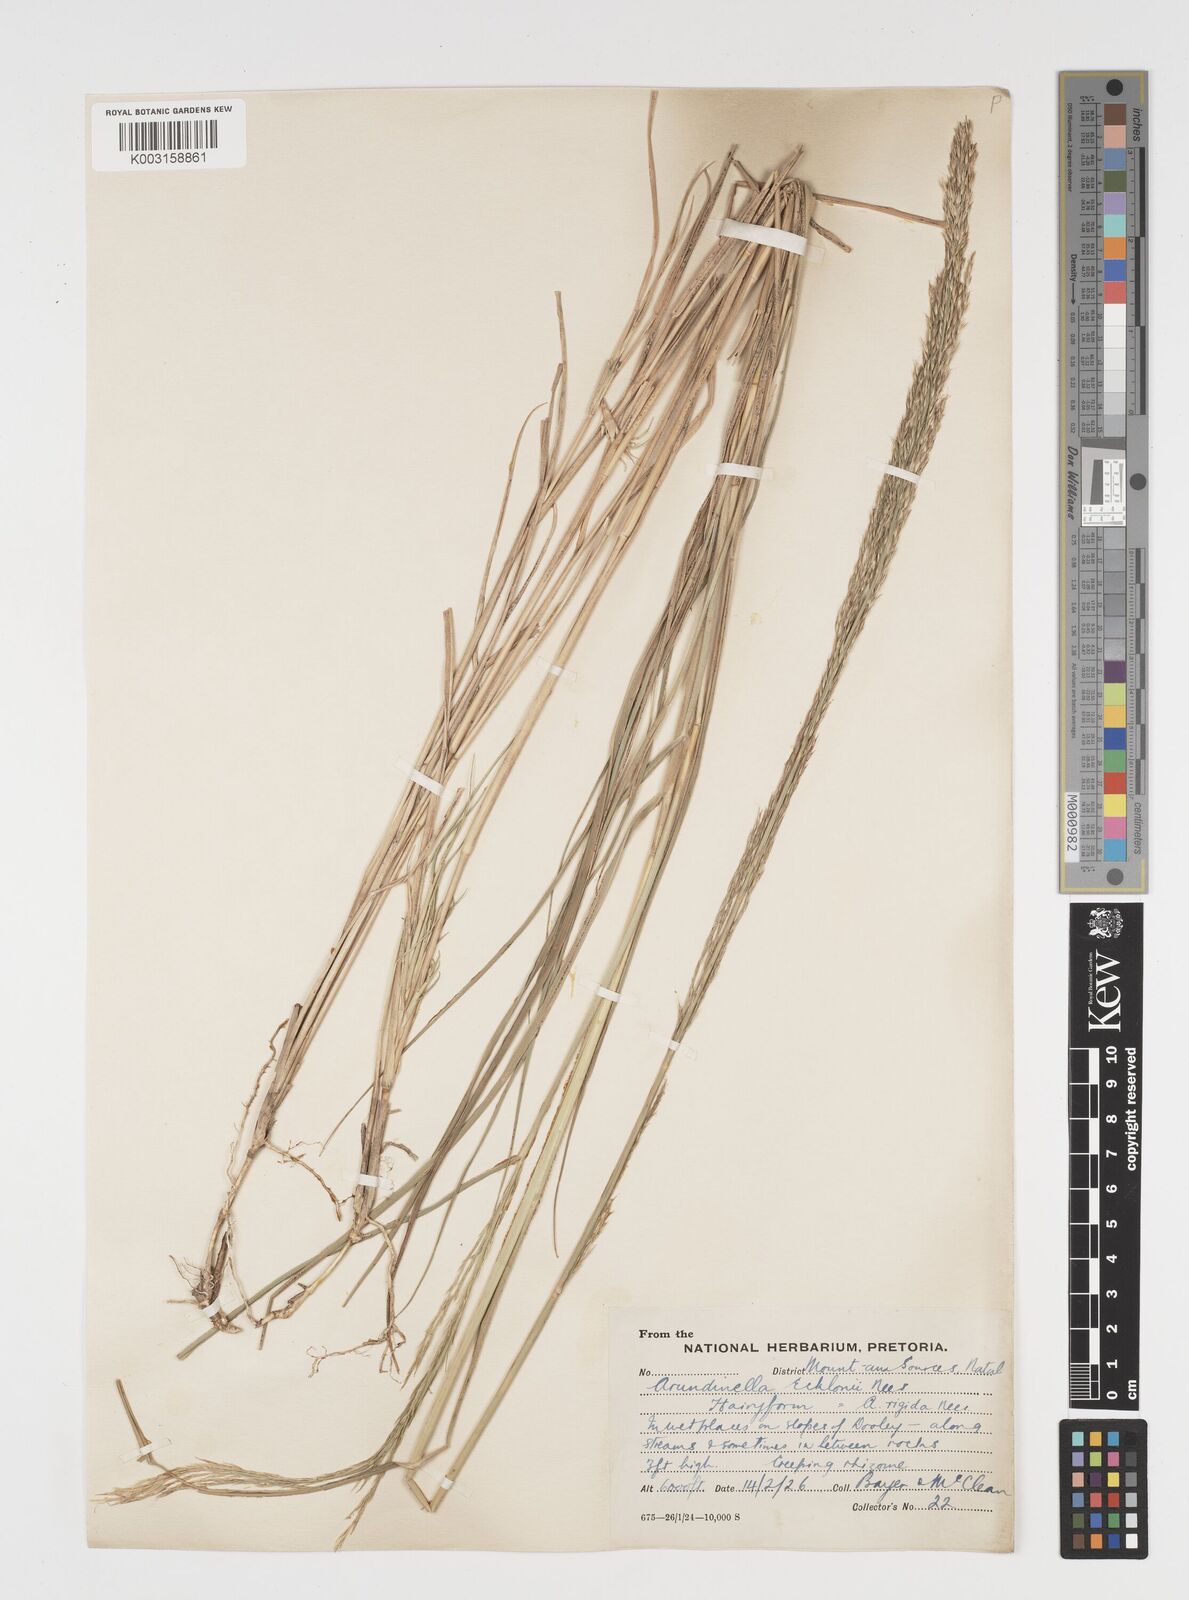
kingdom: Plantae
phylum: Tracheophyta
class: Liliopsida
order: Poales
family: Poaceae
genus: Arundinella
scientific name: Arundinella nepalensis
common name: Reed grass
